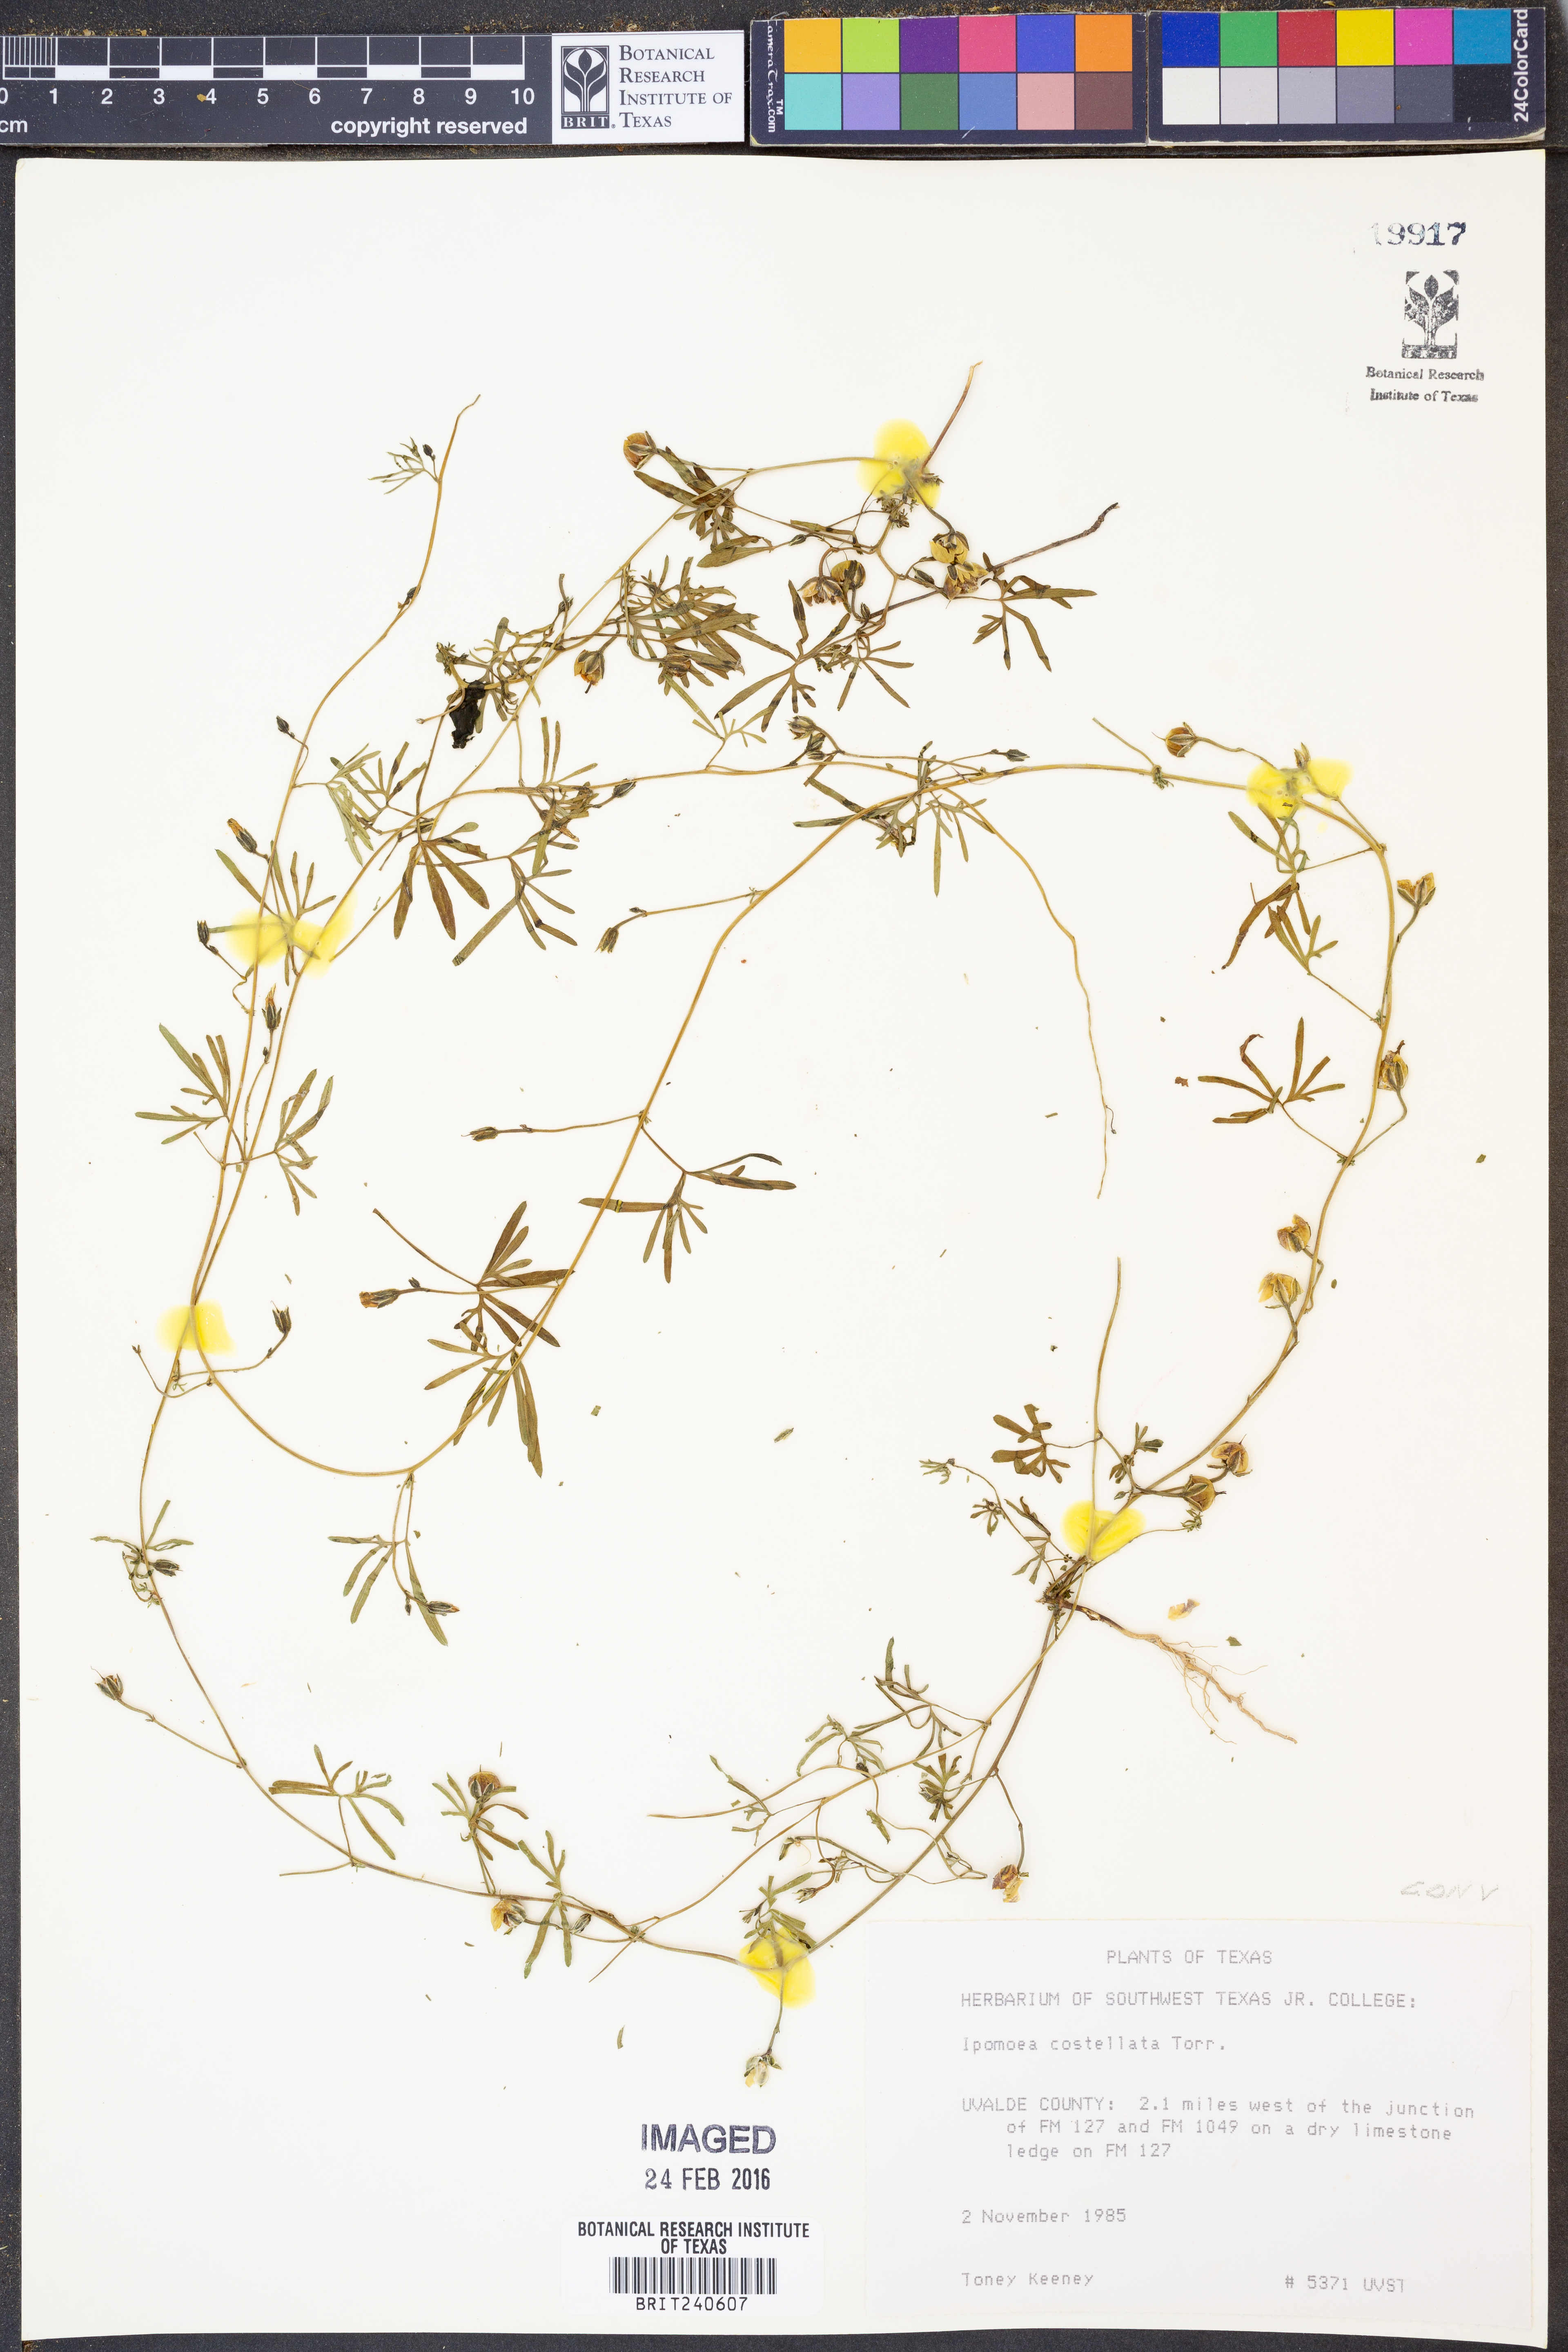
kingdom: Plantae
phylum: Tracheophyta
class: Magnoliopsida
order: Solanales
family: Convolvulaceae
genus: Ipomoea
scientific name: Ipomoea costellata
